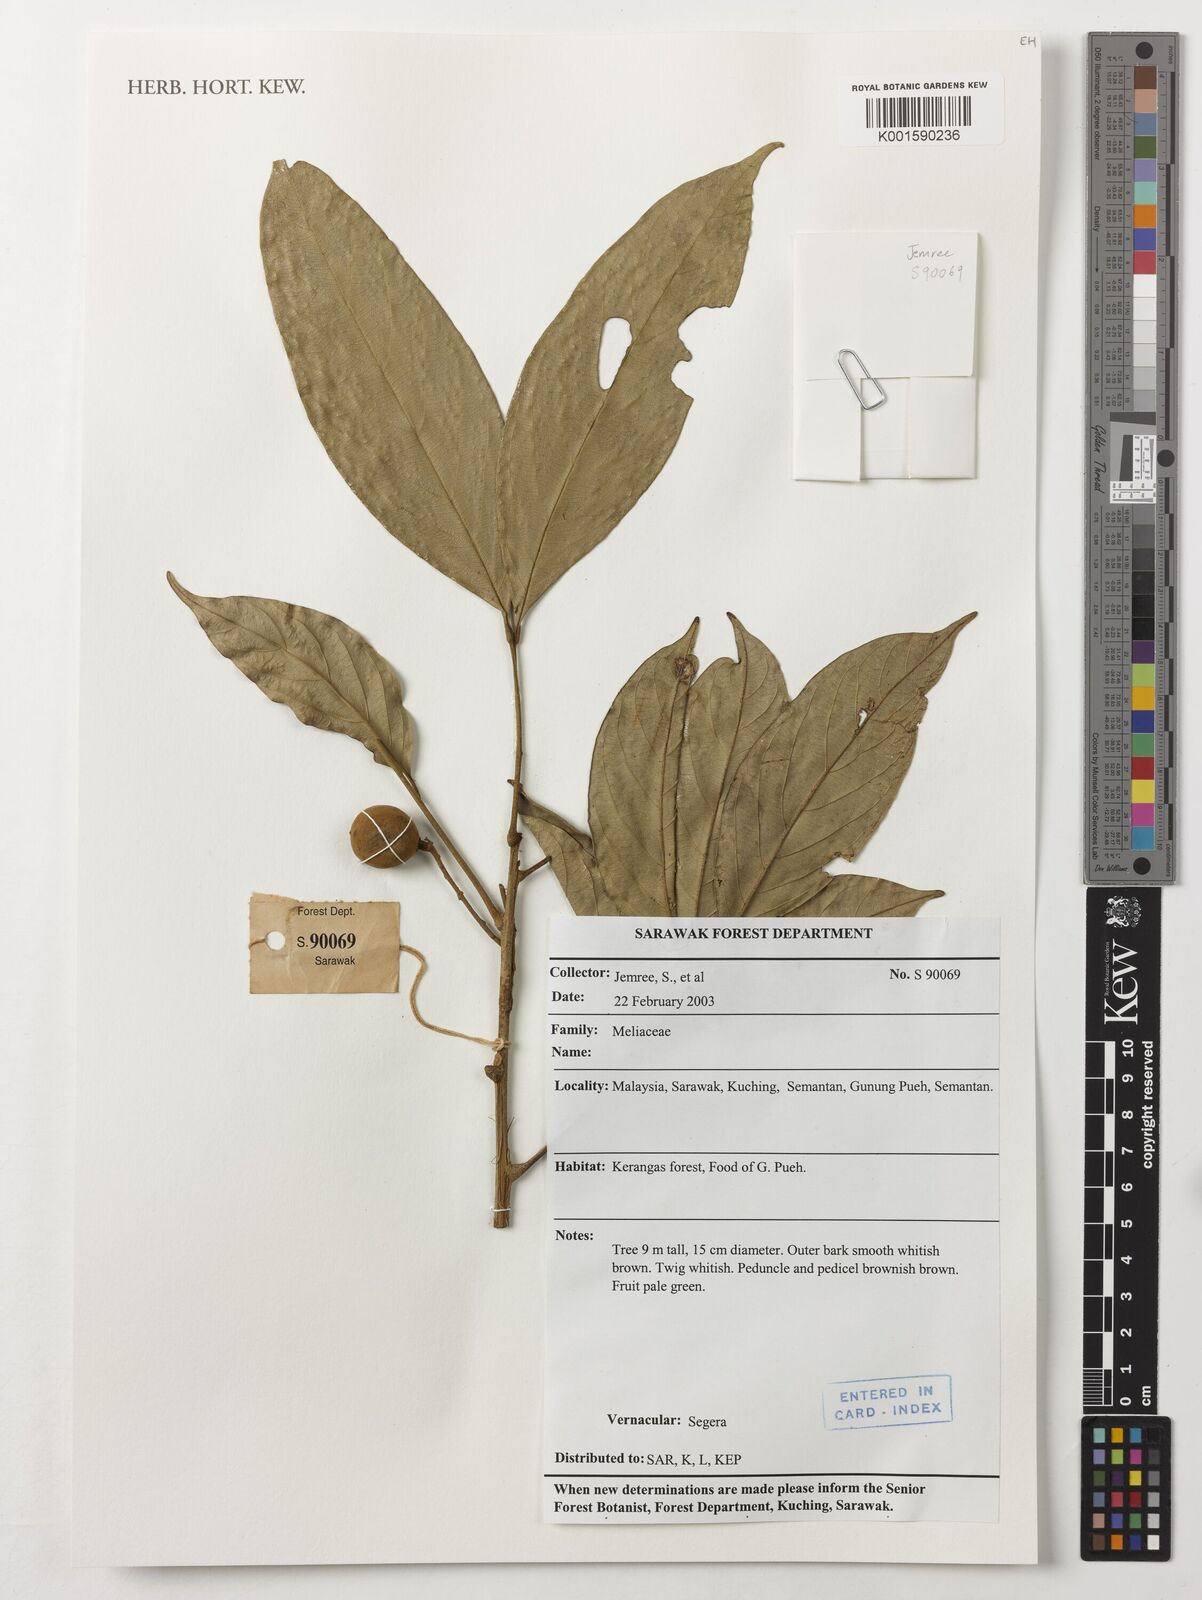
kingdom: Plantae
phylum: Tracheophyta
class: Magnoliopsida
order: Sapindales
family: Meliaceae
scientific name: Meliaceae
